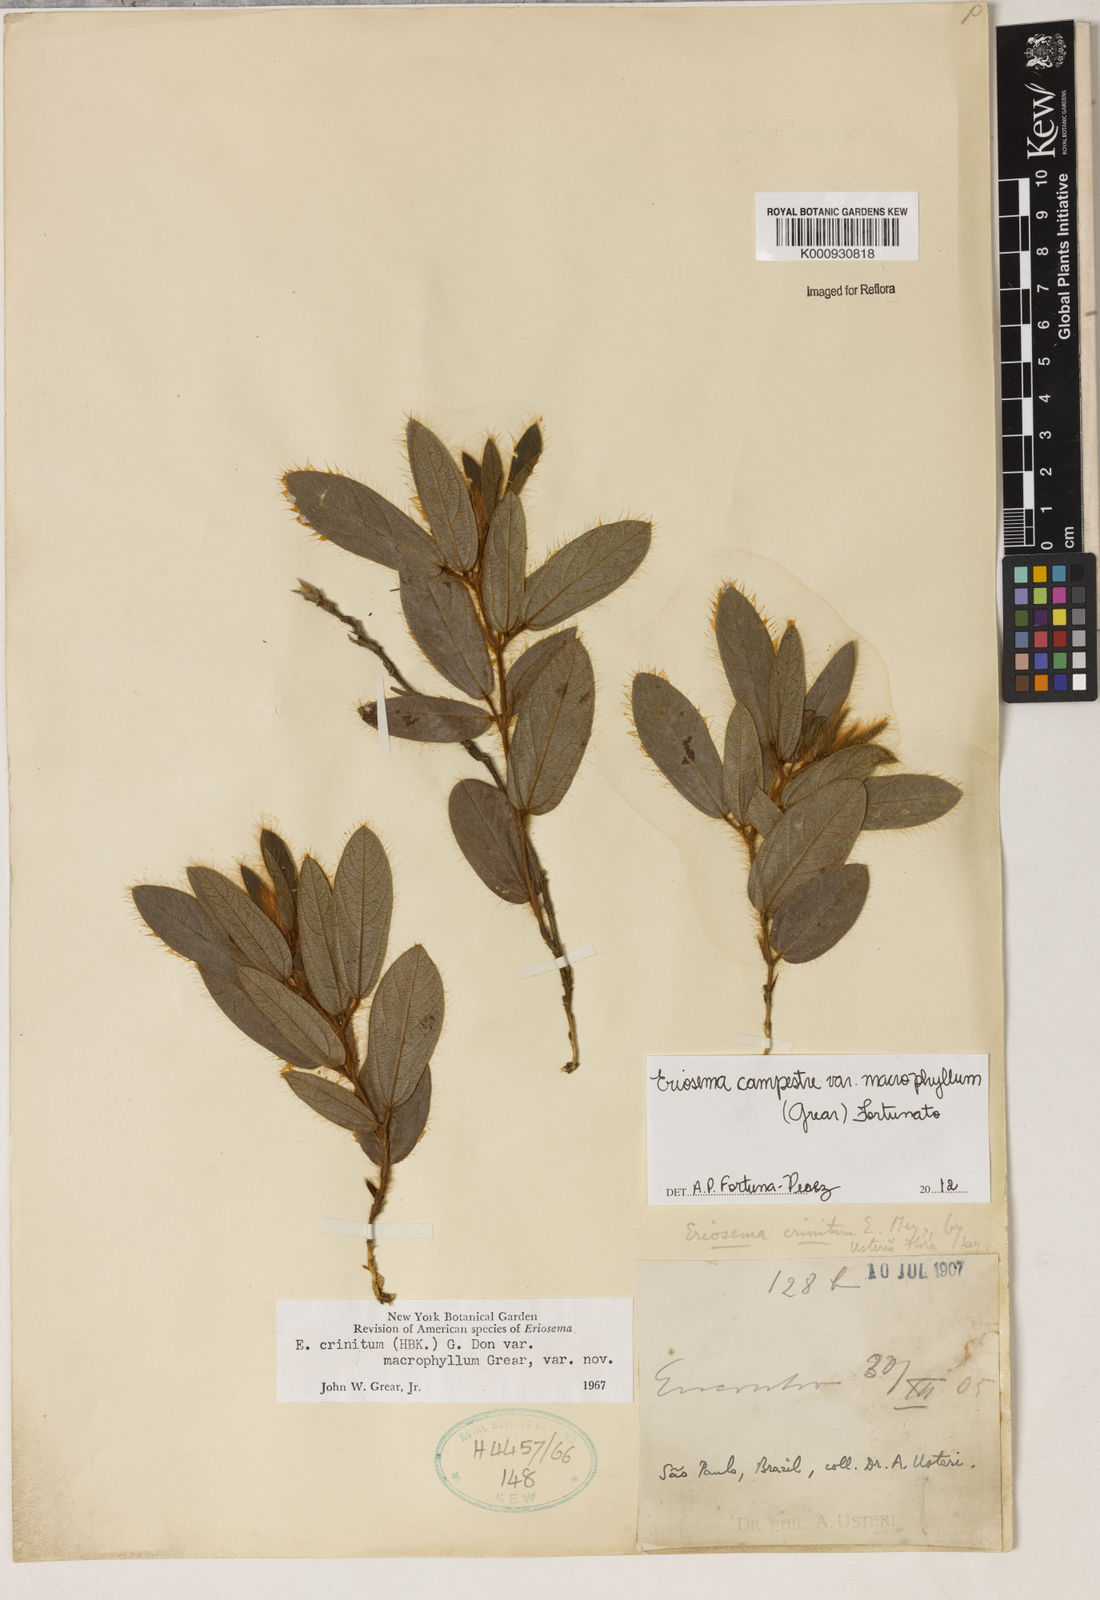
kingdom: Plantae
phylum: Tracheophyta
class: Magnoliopsida
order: Fabales
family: Fabaceae
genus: Eriosema
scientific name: Eriosema campestre
